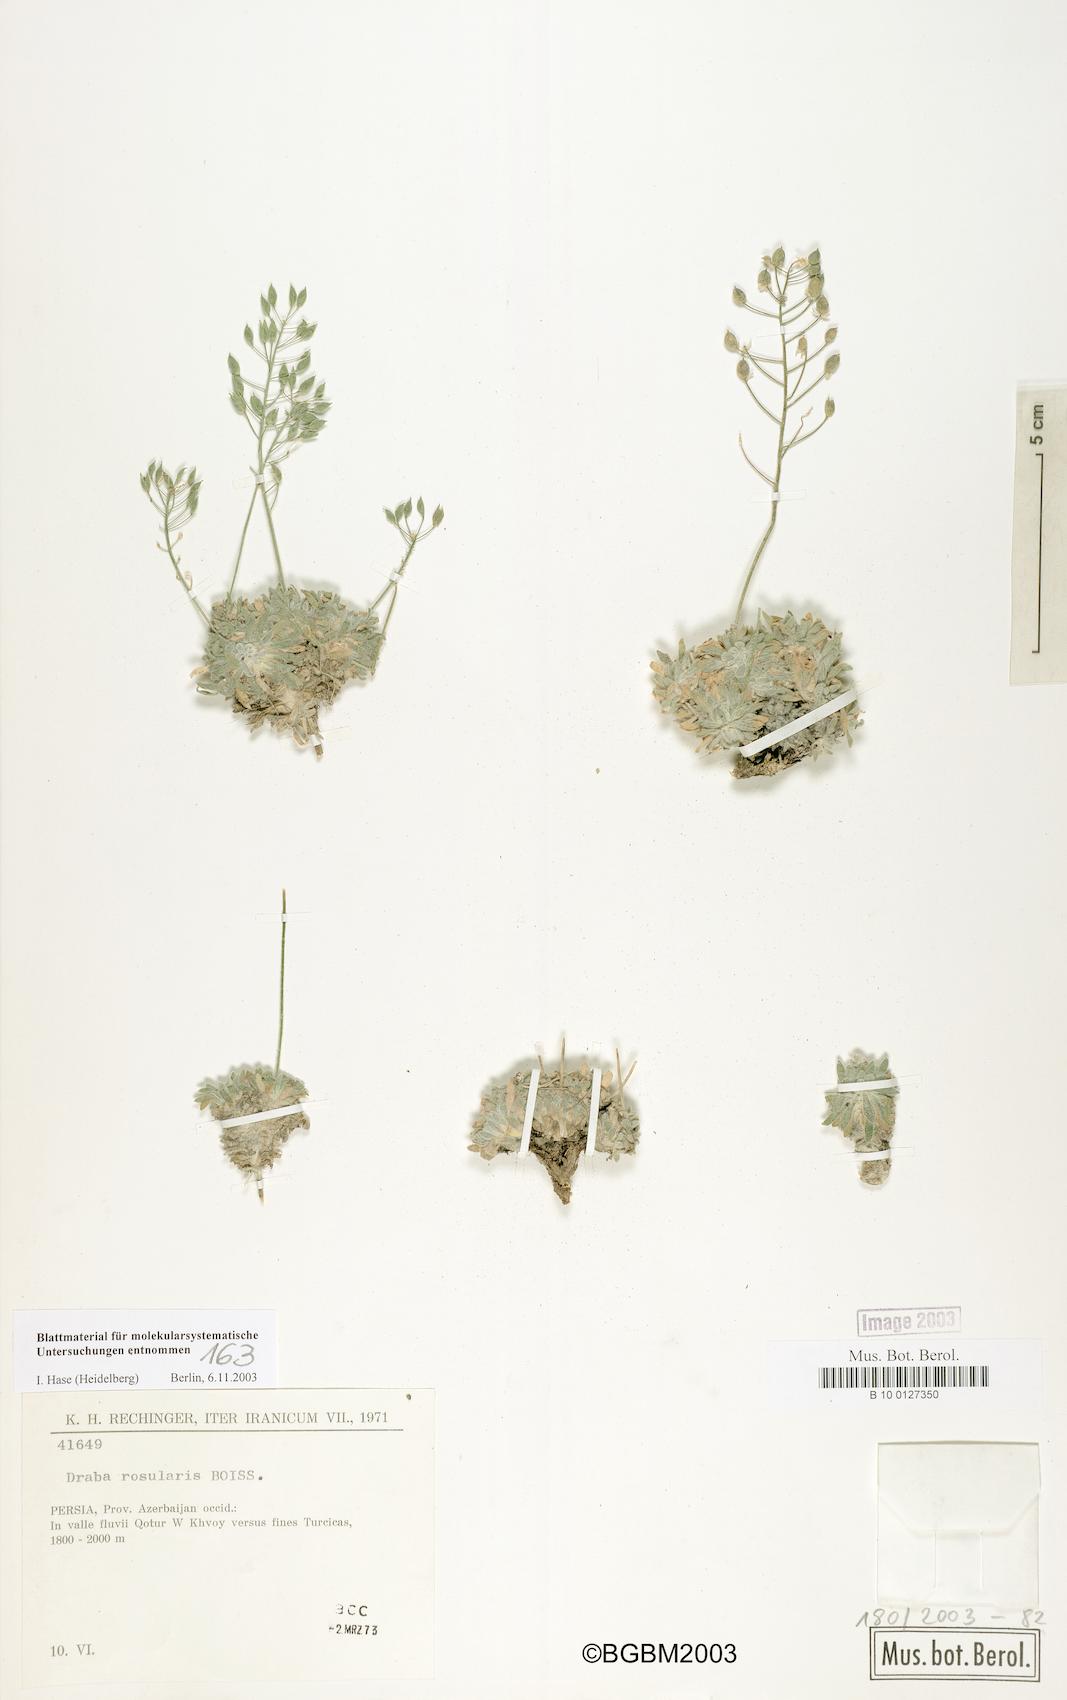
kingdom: Plantae
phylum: Tracheophyta
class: Magnoliopsida
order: Brassicales
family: Brassicaceae
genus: Draba
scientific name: Draba rosularis
